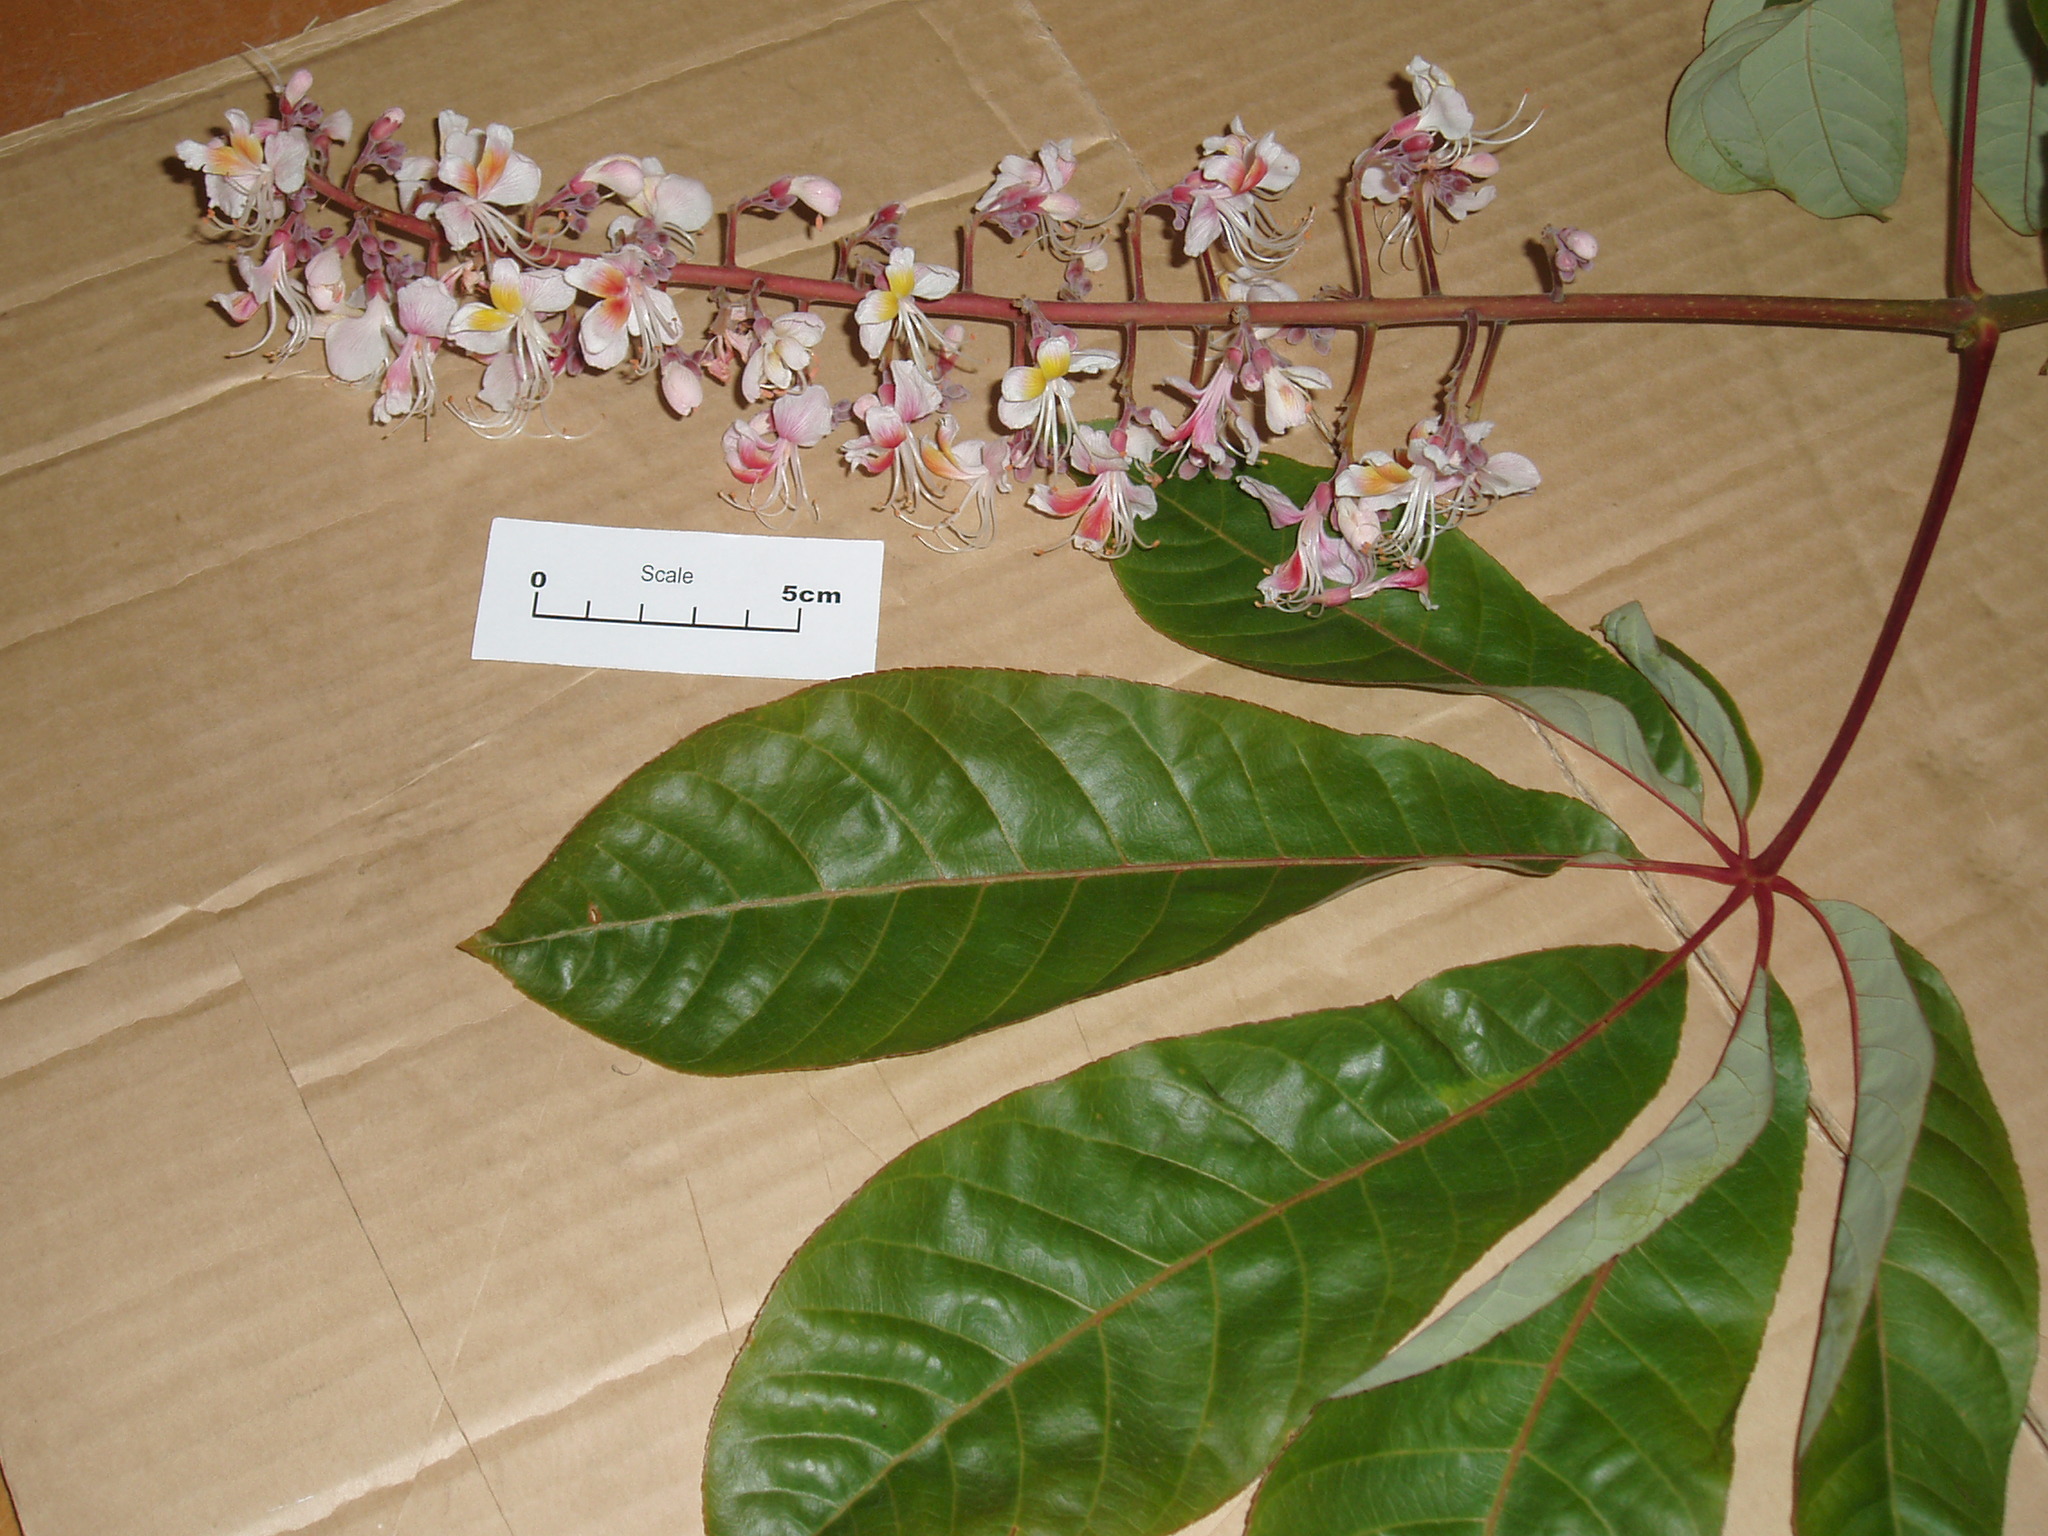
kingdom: Plantae
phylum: Tracheophyta
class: Magnoliopsida
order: Sapindales
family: Sapindaceae
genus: Aesculus
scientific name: Aesculus indica
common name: Indian horse-chestnut
